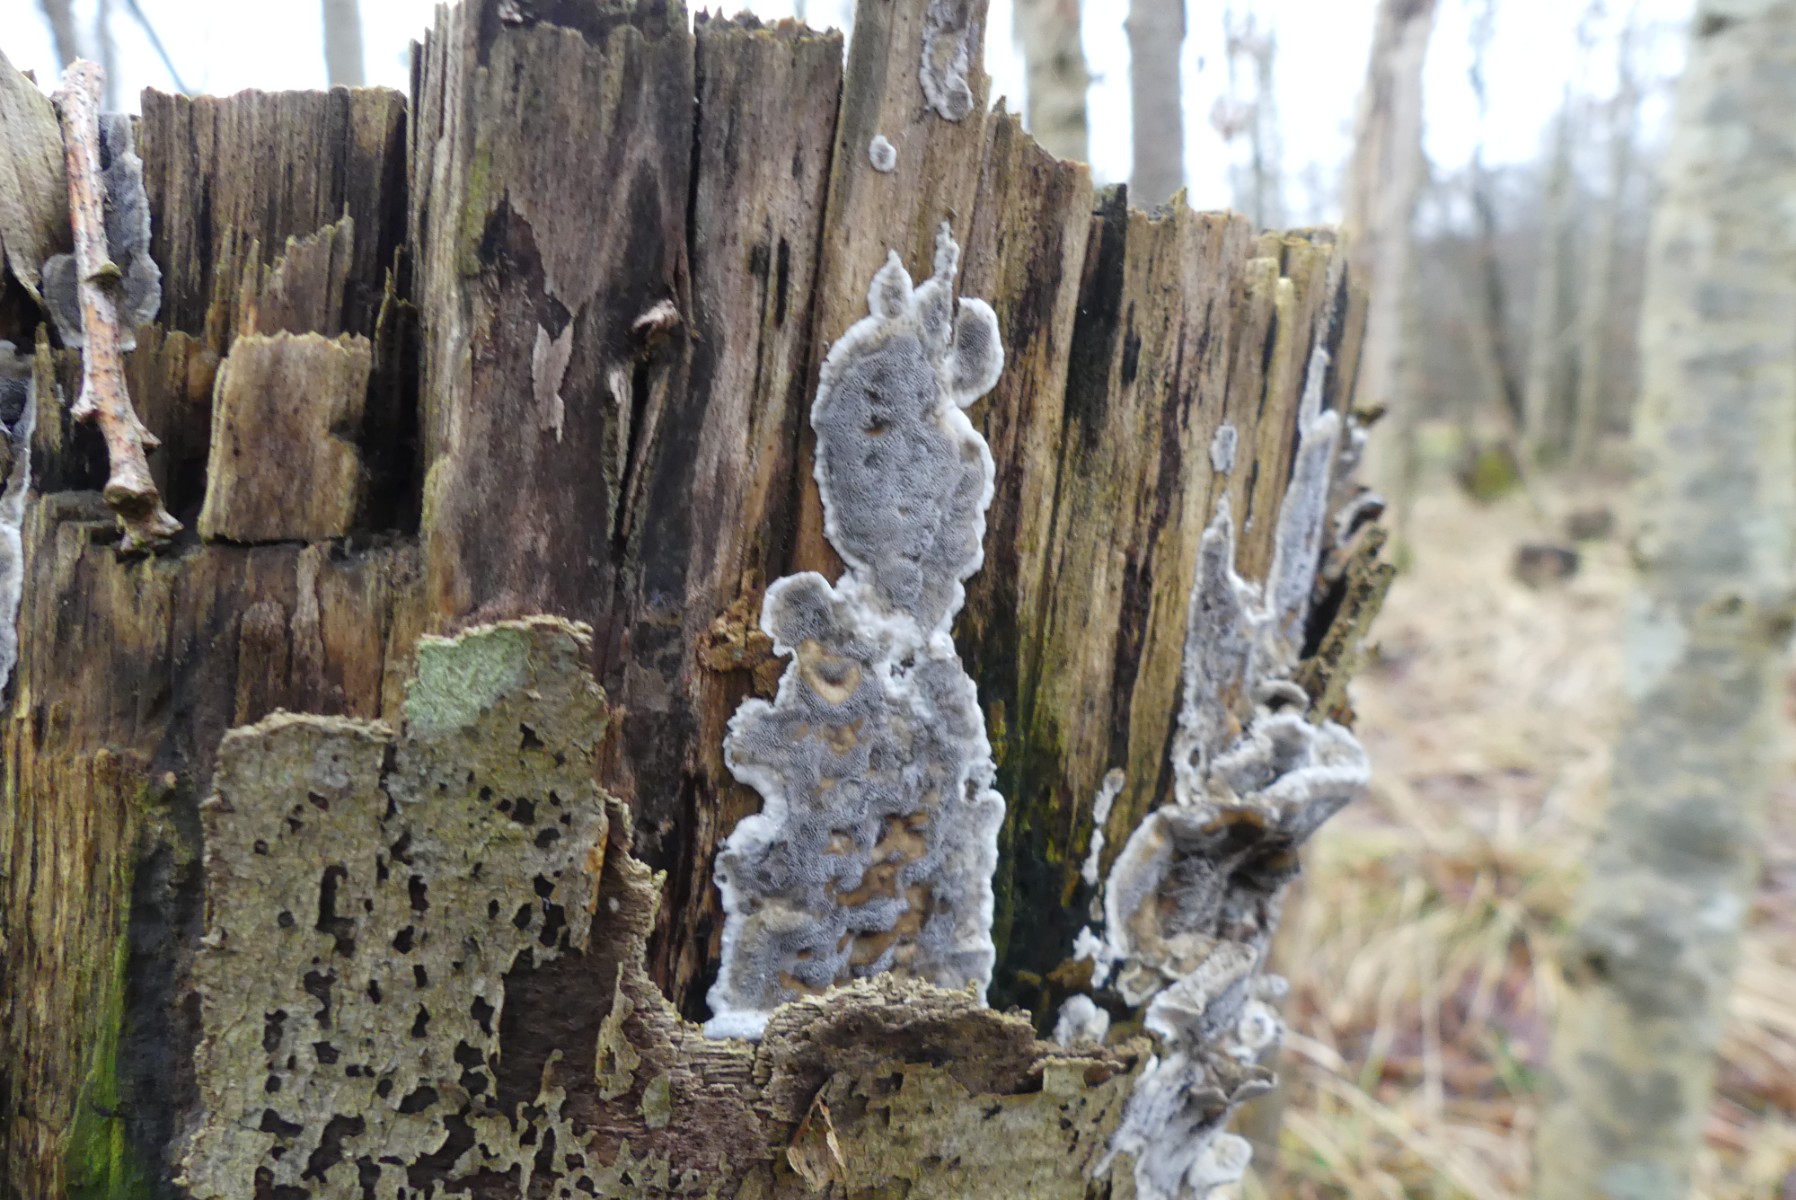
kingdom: Fungi
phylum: Basidiomycota
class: Agaricomycetes
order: Polyporales
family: Phanerochaetaceae
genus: Bjerkandera
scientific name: Bjerkandera adusta
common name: sveden sodporesvamp
